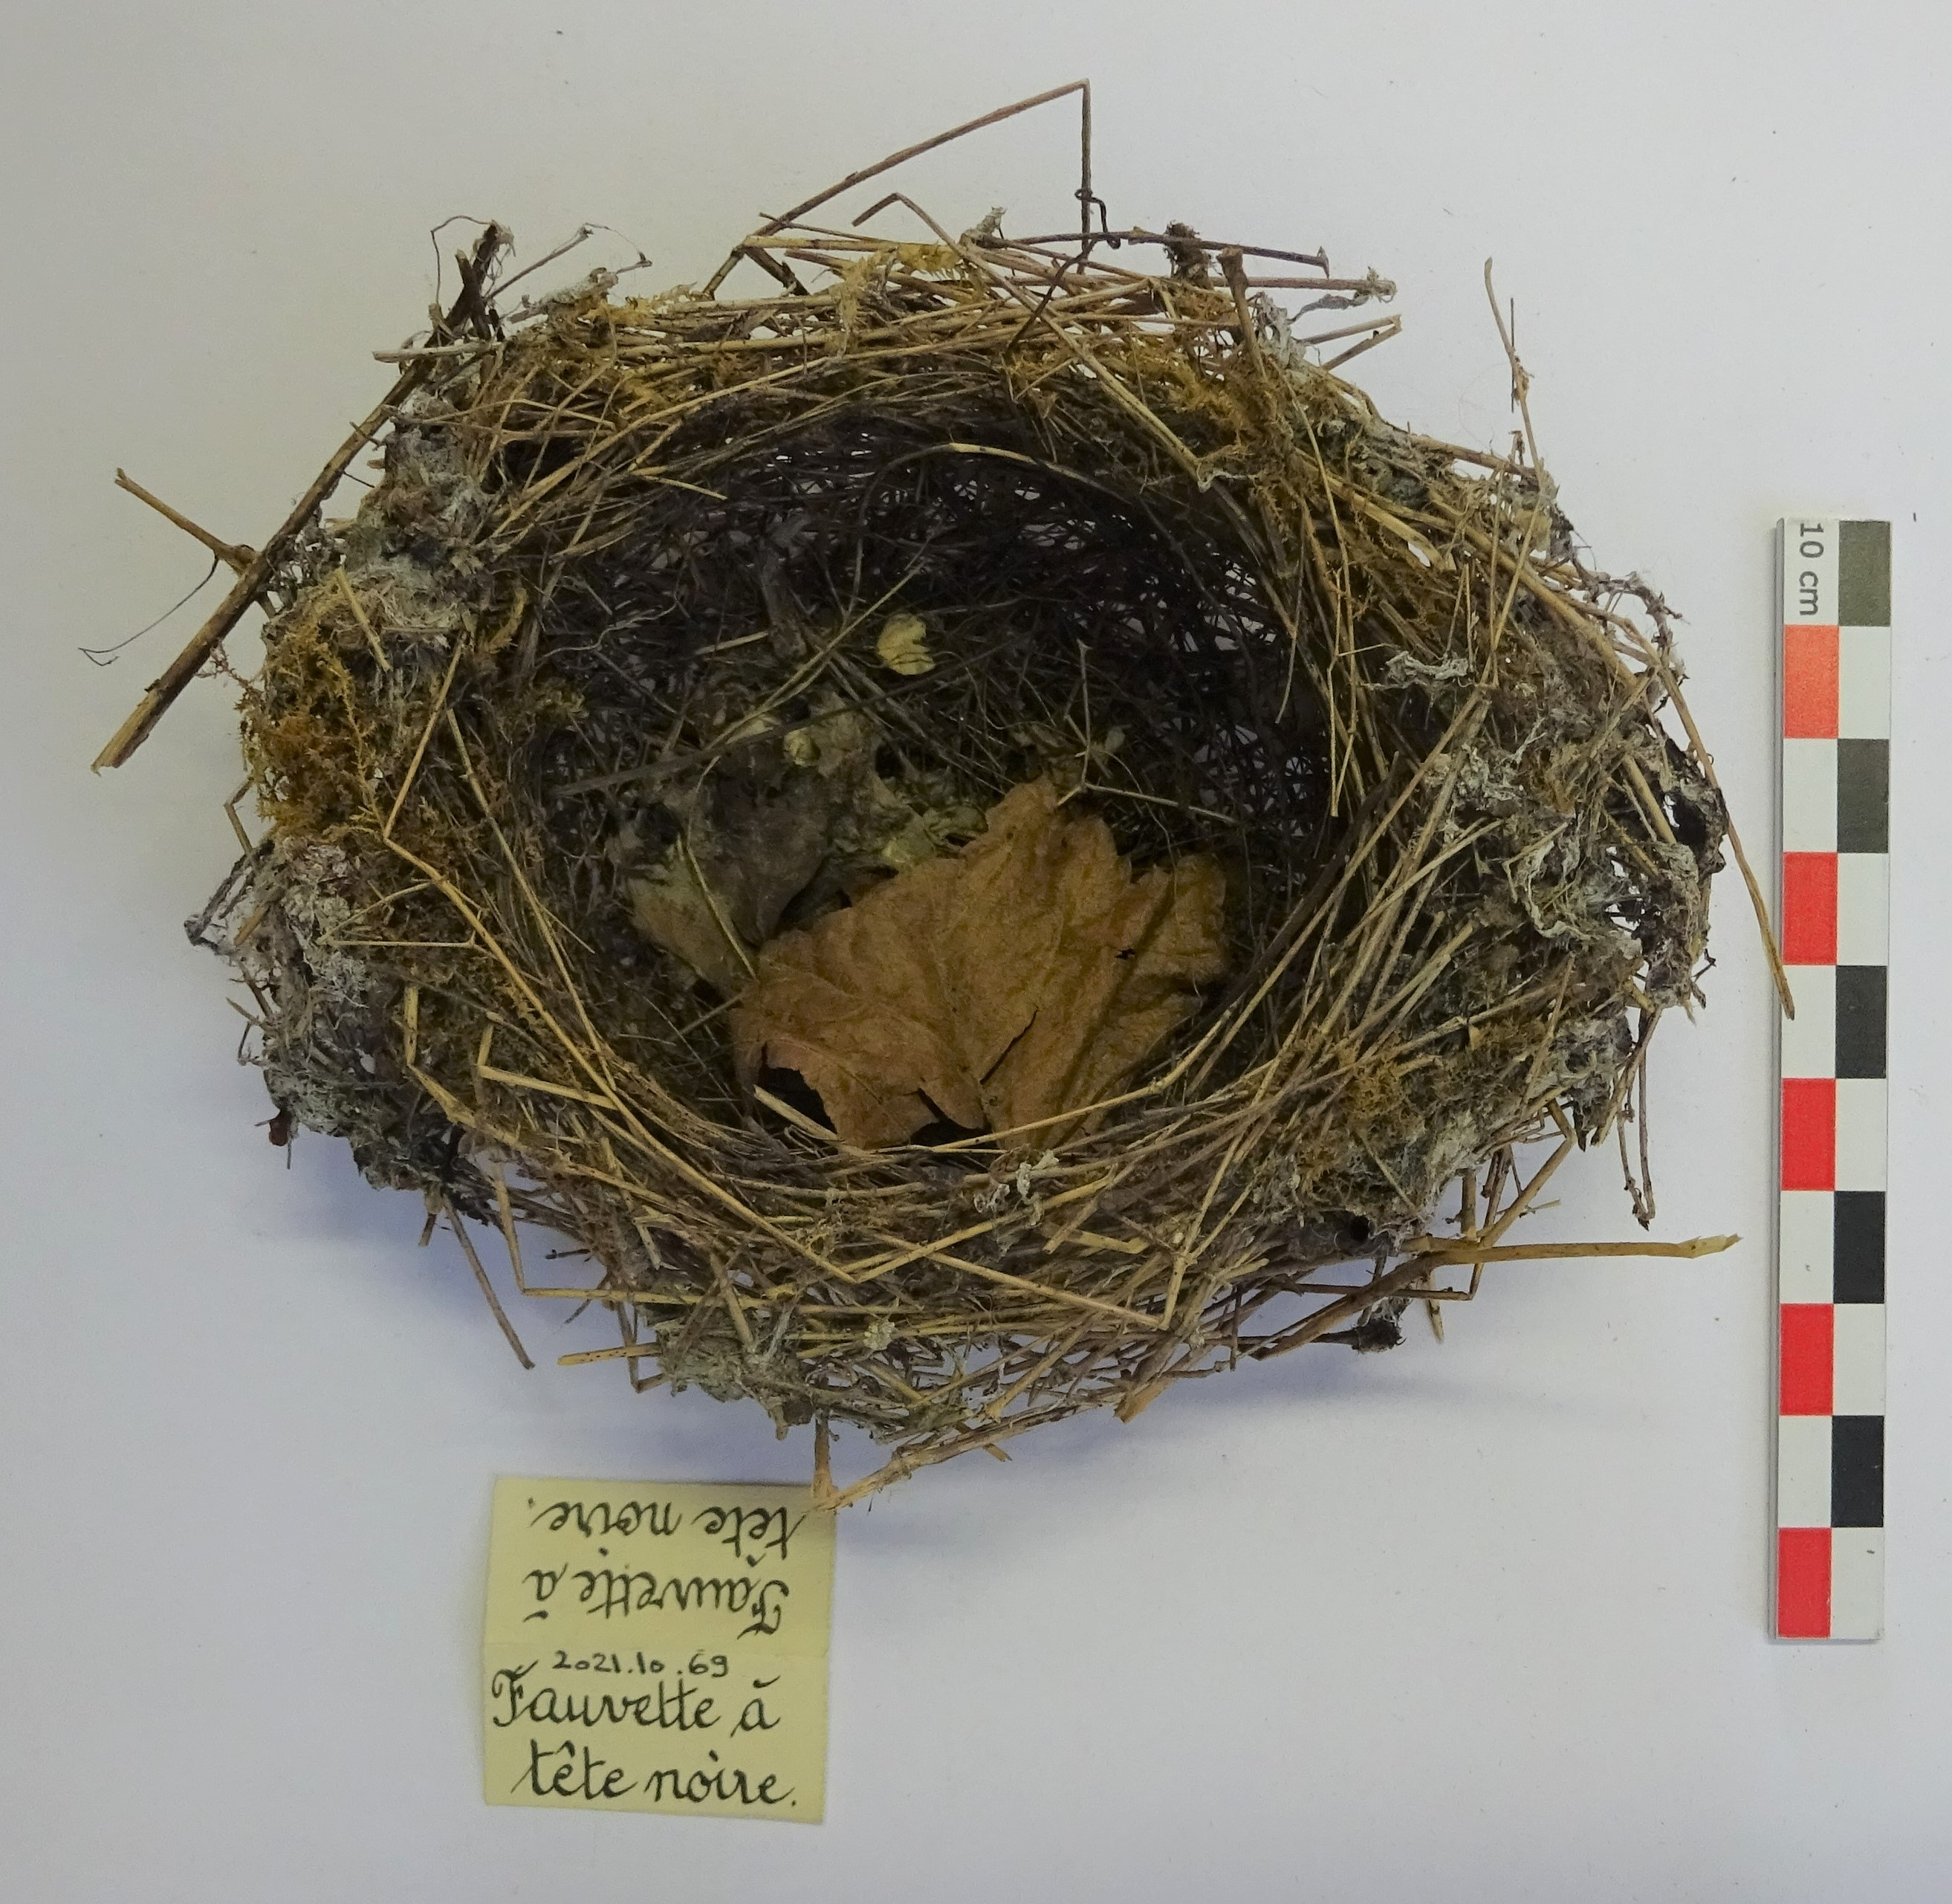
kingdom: Animalia
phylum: Chordata
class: Aves
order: Passeriformes
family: Sylviidae
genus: Sylvia
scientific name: Sylvia atricapilla
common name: Eurasian blackcap
